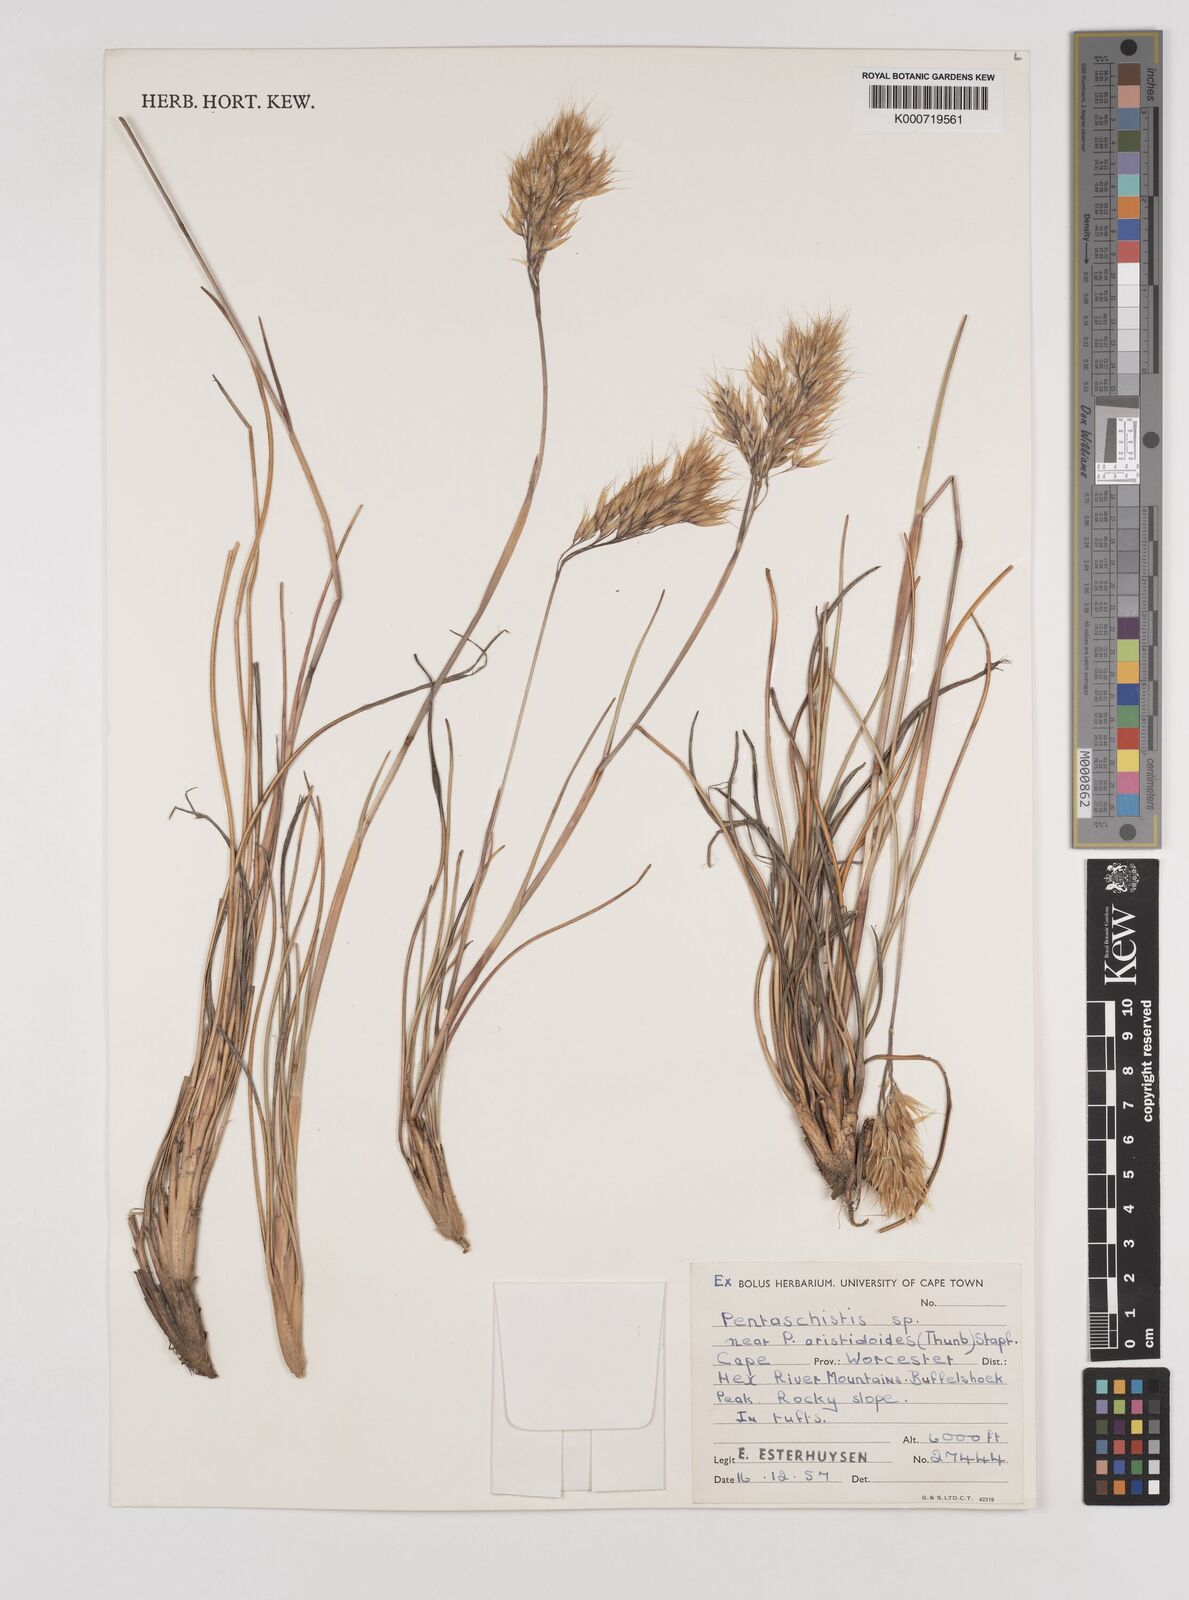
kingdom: Plantae
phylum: Tracheophyta
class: Liliopsida
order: Poales
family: Poaceae
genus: Pentameris
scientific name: Pentameris pyrophila
